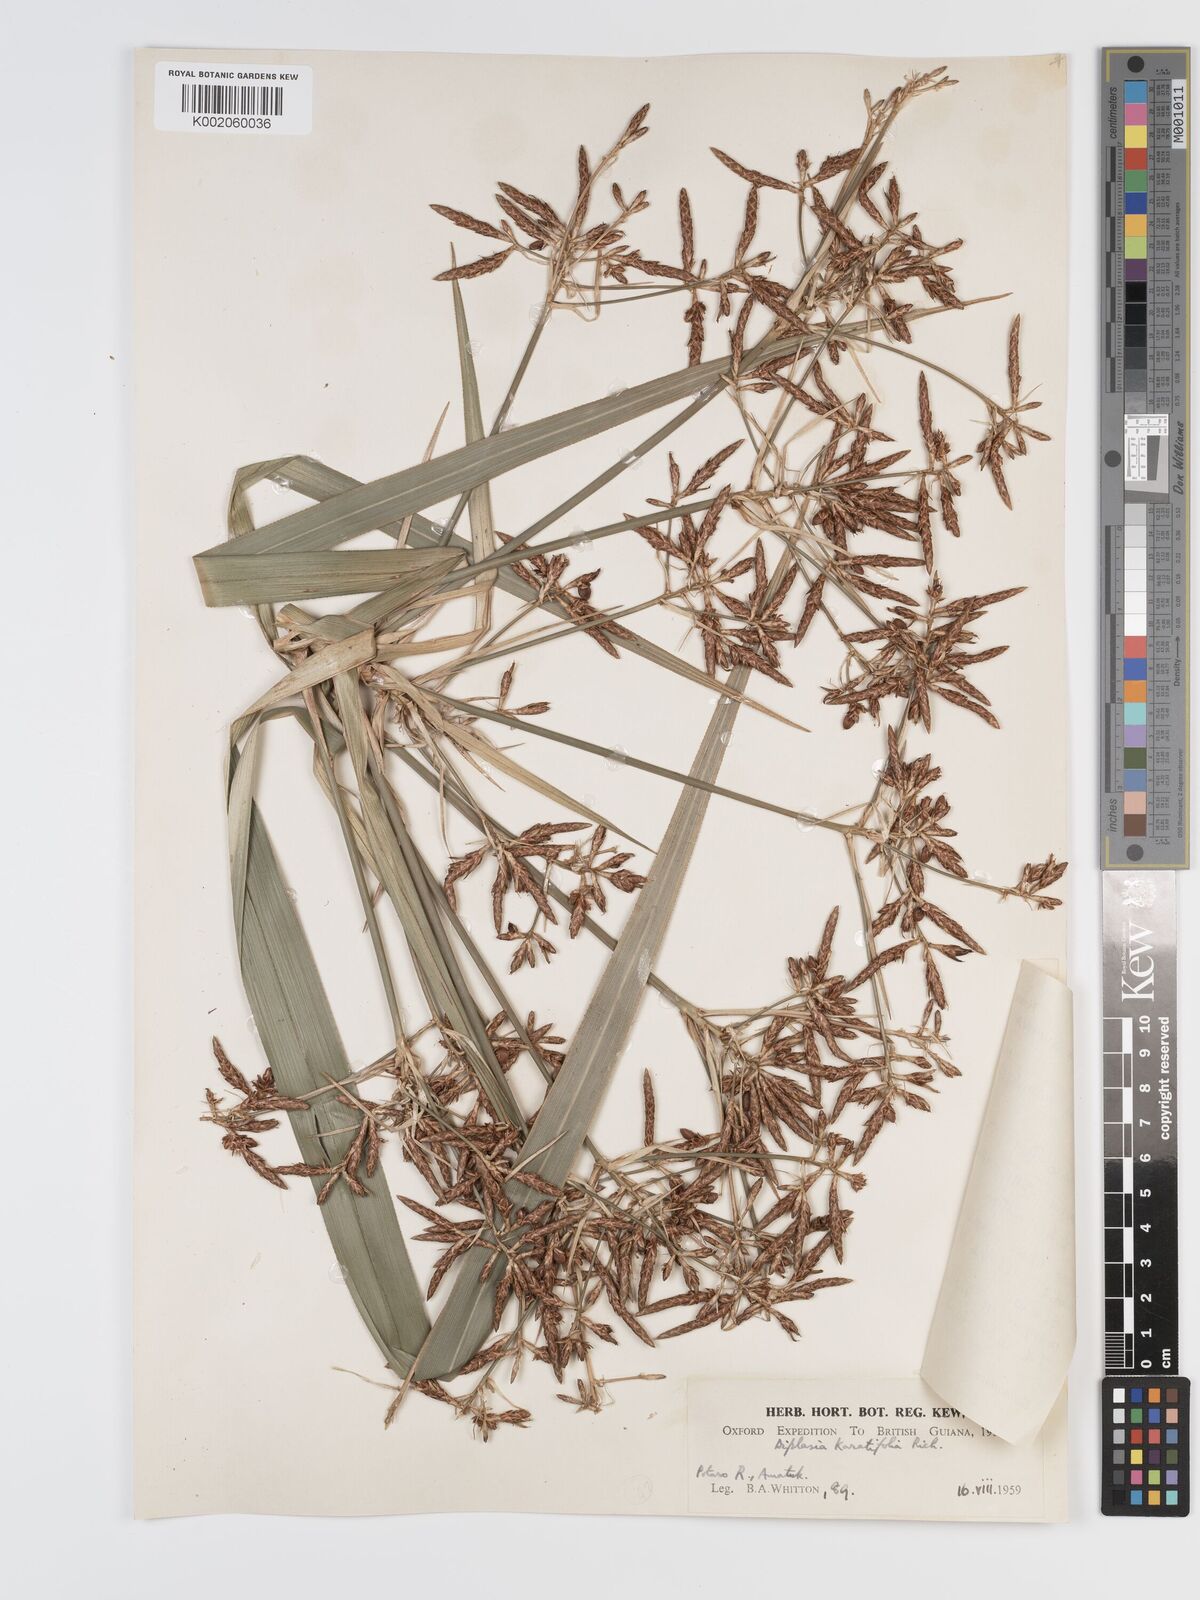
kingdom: Plantae
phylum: Tracheophyta
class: Liliopsida
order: Poales
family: Cyperaceae
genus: Diplasia
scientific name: Diplasia karatifolia
